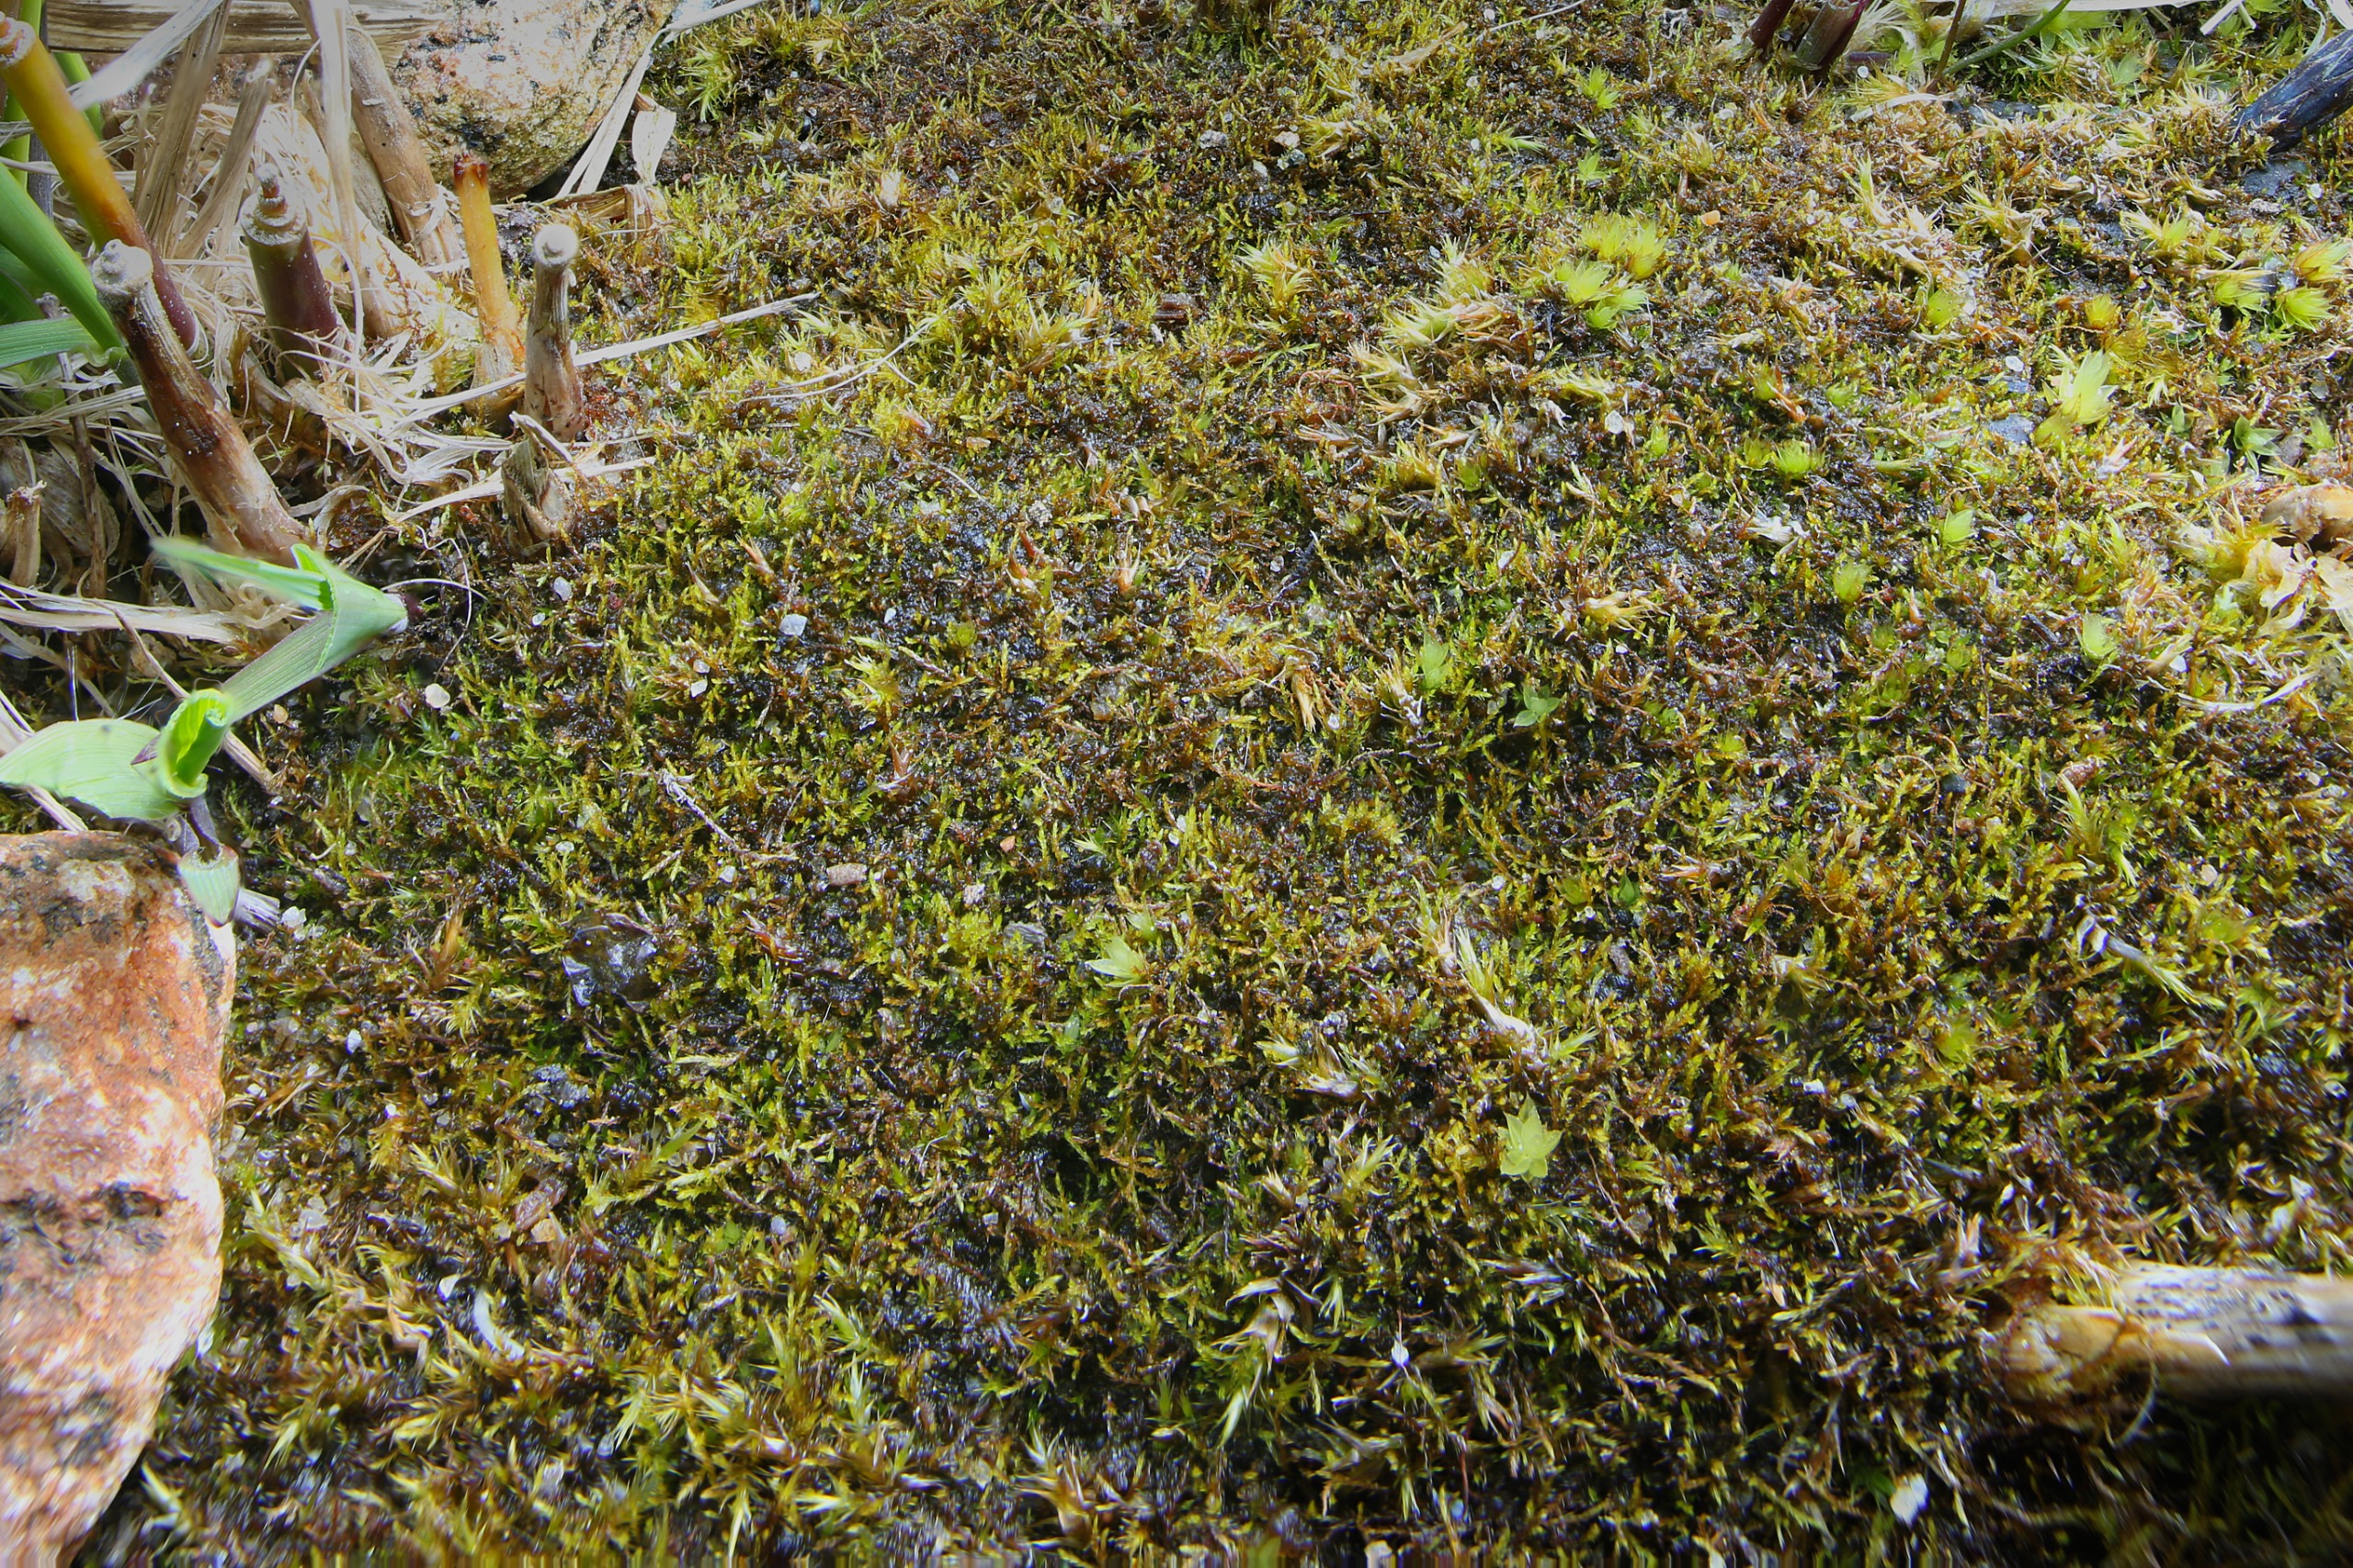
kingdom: Plantae
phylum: Bryophyta
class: Bryopsida
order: Hypnales
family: Amblystegiaceae
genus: Amblystegium
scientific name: Amblystegium serpens
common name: Almindelig krybmos
